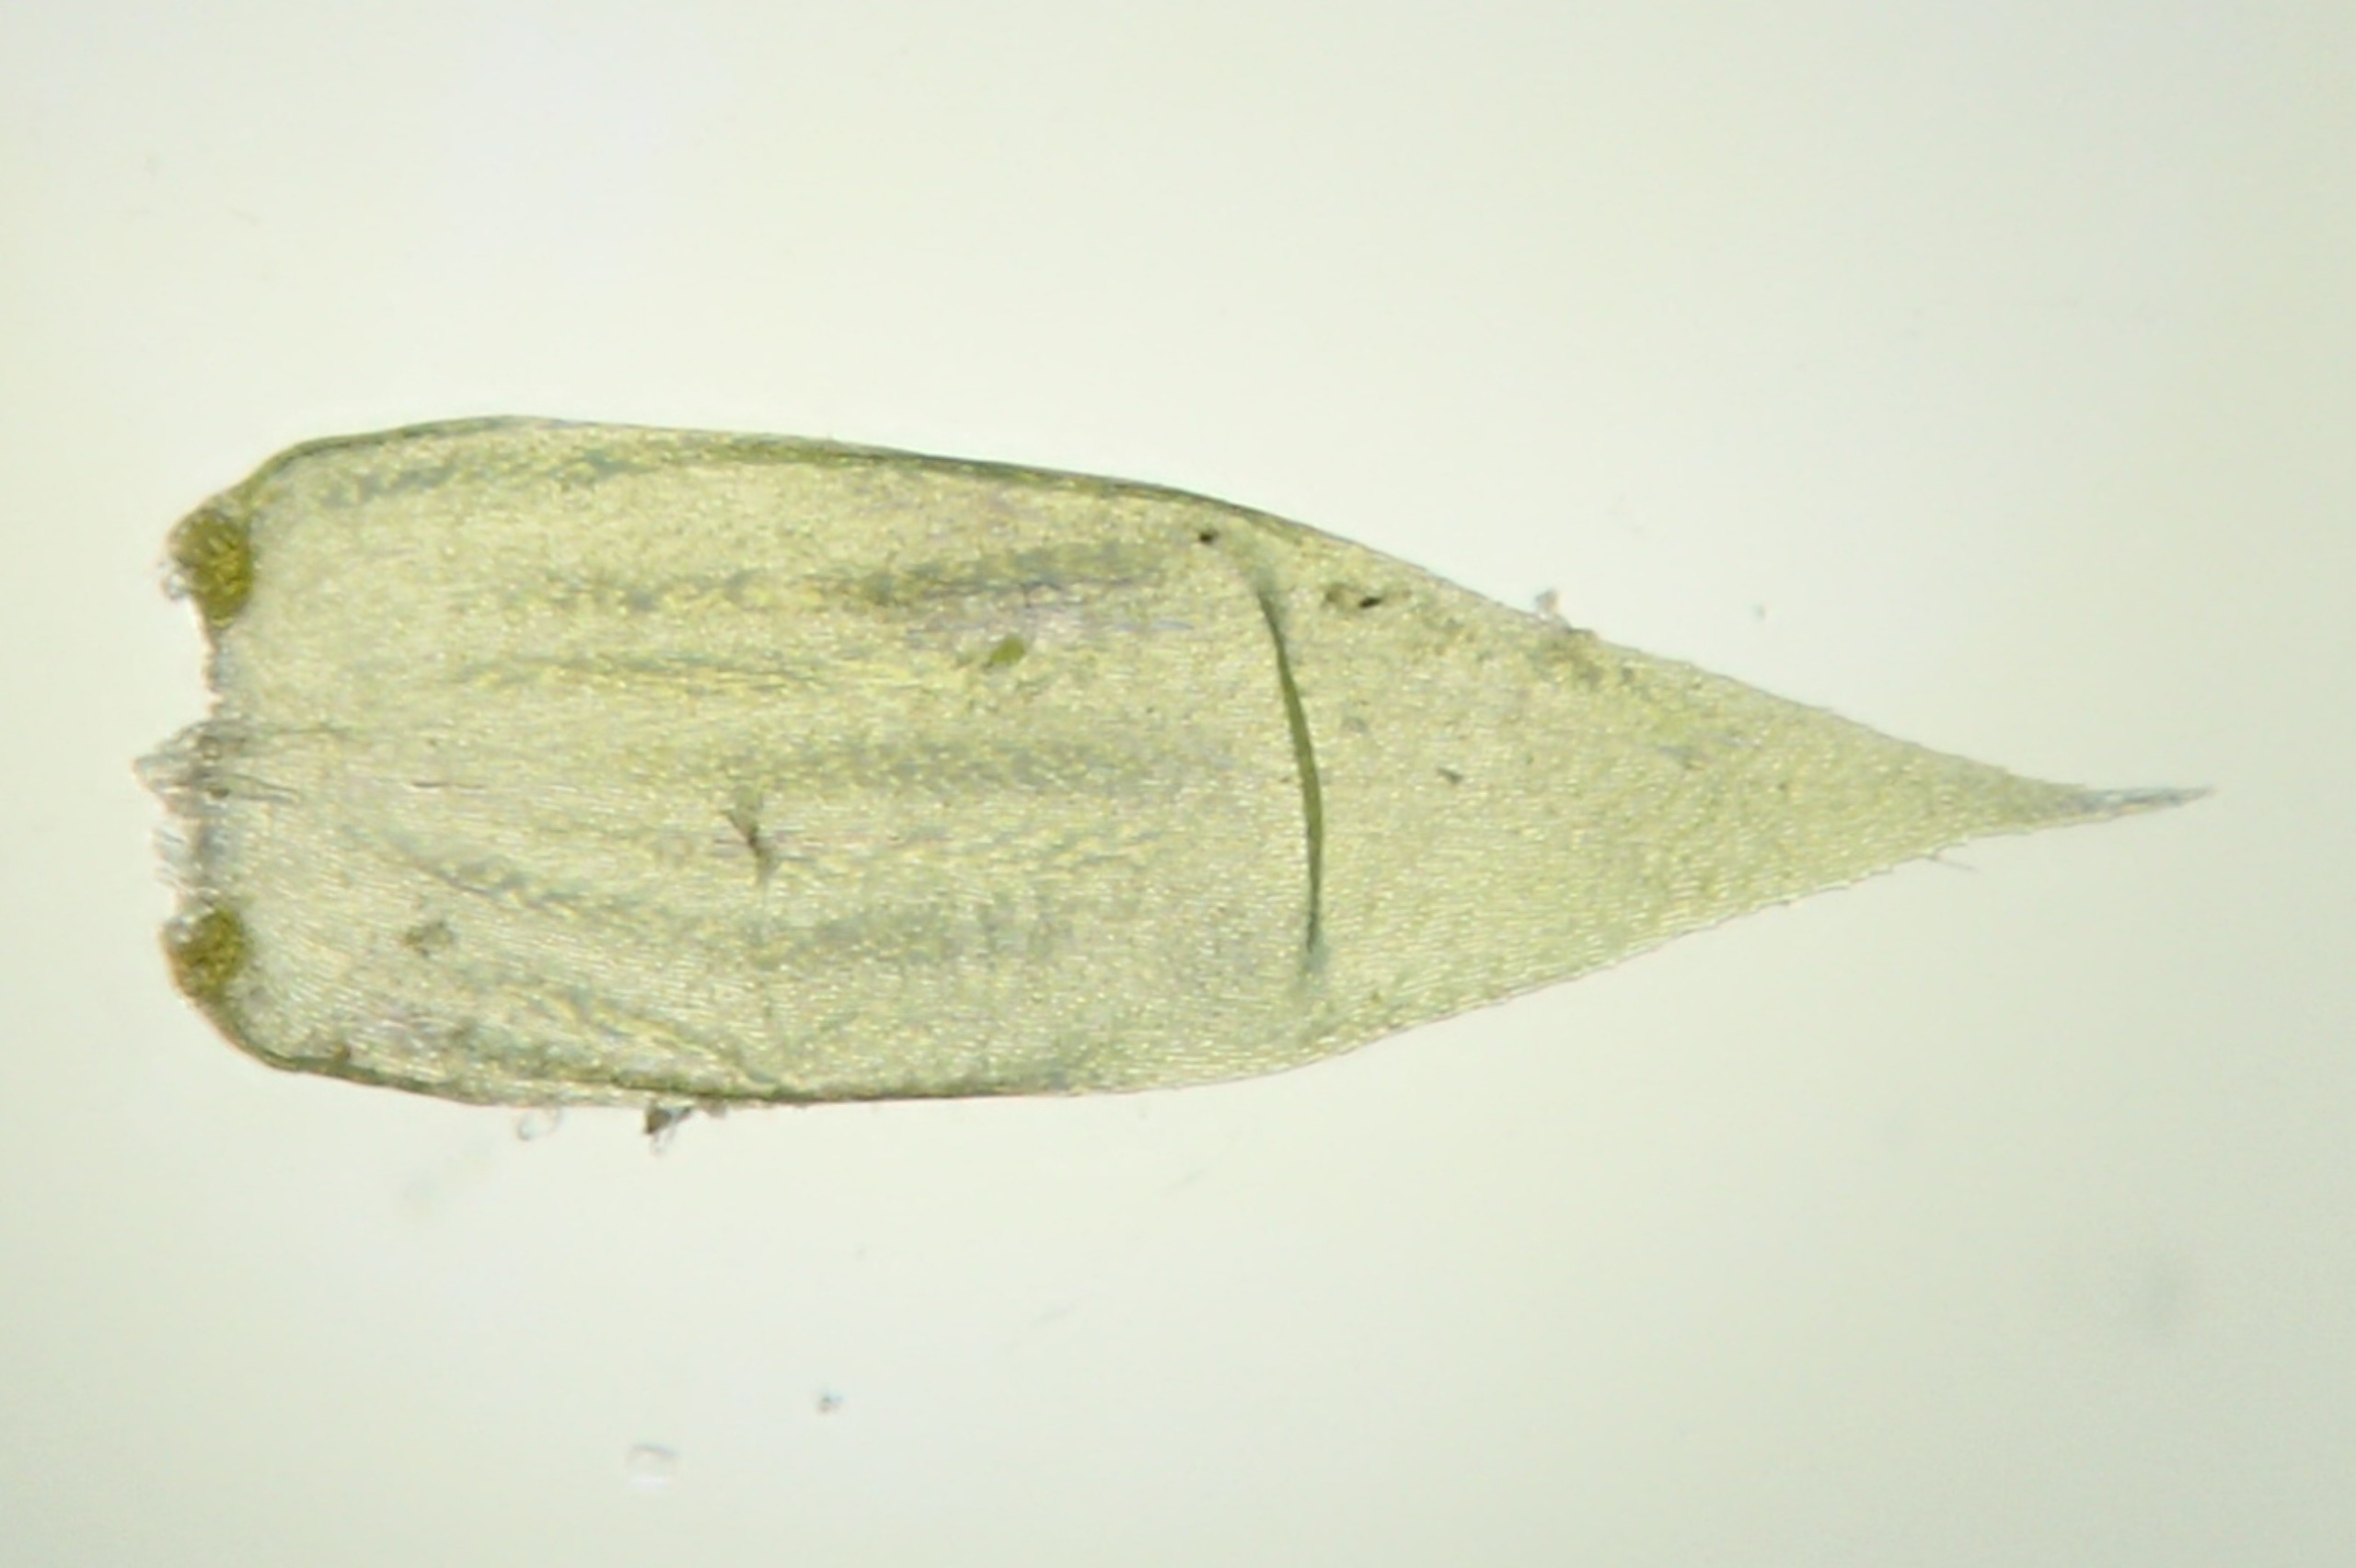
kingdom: Plantae
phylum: Bryophyta
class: Bryopsida
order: Hypnales
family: Hypnaceae
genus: Hypnum
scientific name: Hypnum jutlandicum
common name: Hede-cypresmos
